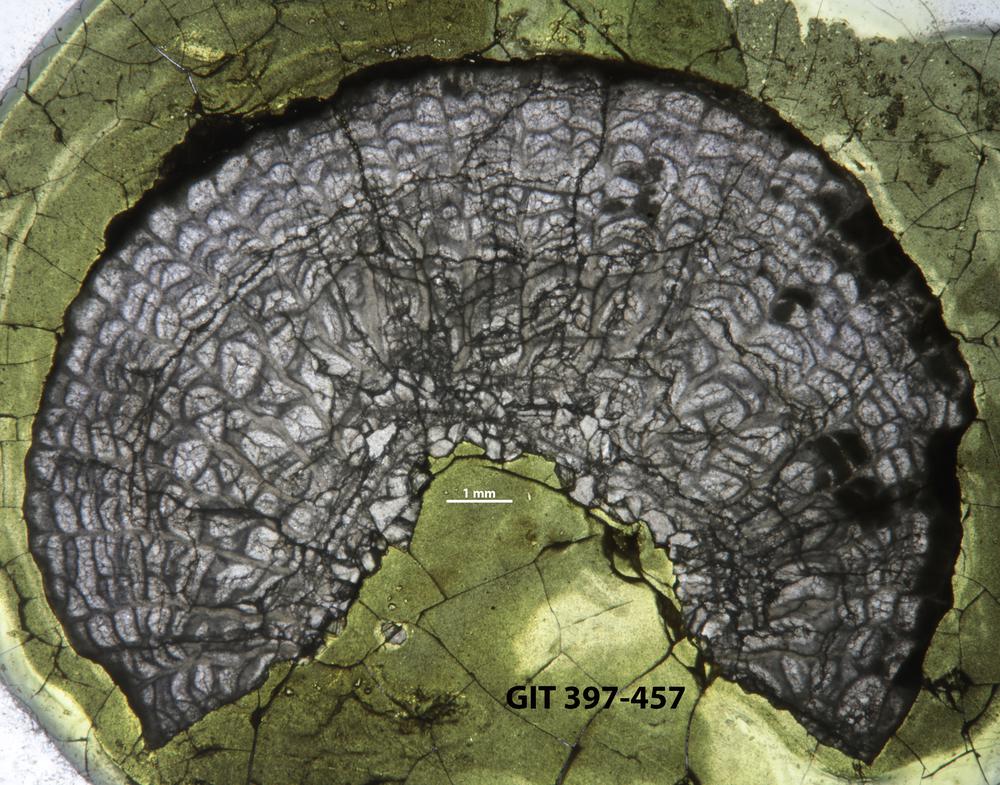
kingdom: Animalia
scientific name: Animalia
